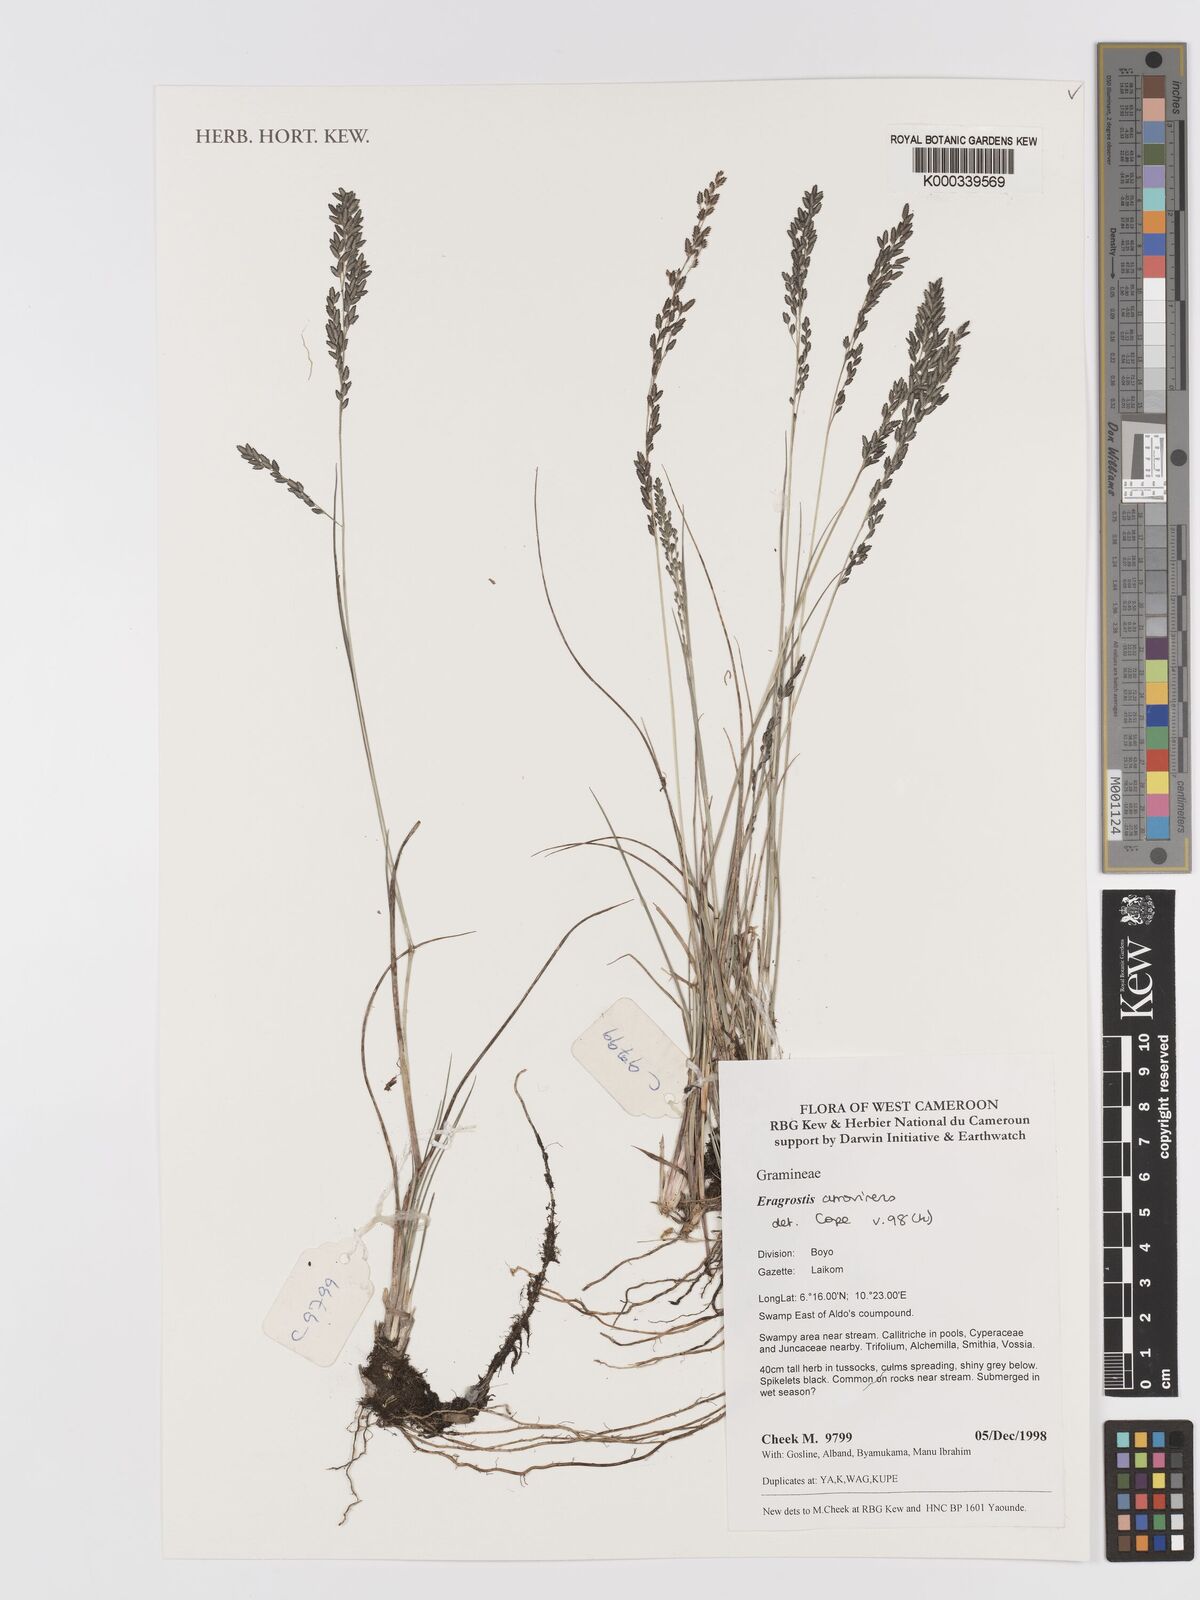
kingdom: Plantae
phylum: Tracheophyta
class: Liliopsida
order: Poales
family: Poaceae
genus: Eragrostis
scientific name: Eragrostis atrovirens
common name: Thalia lovegrass
